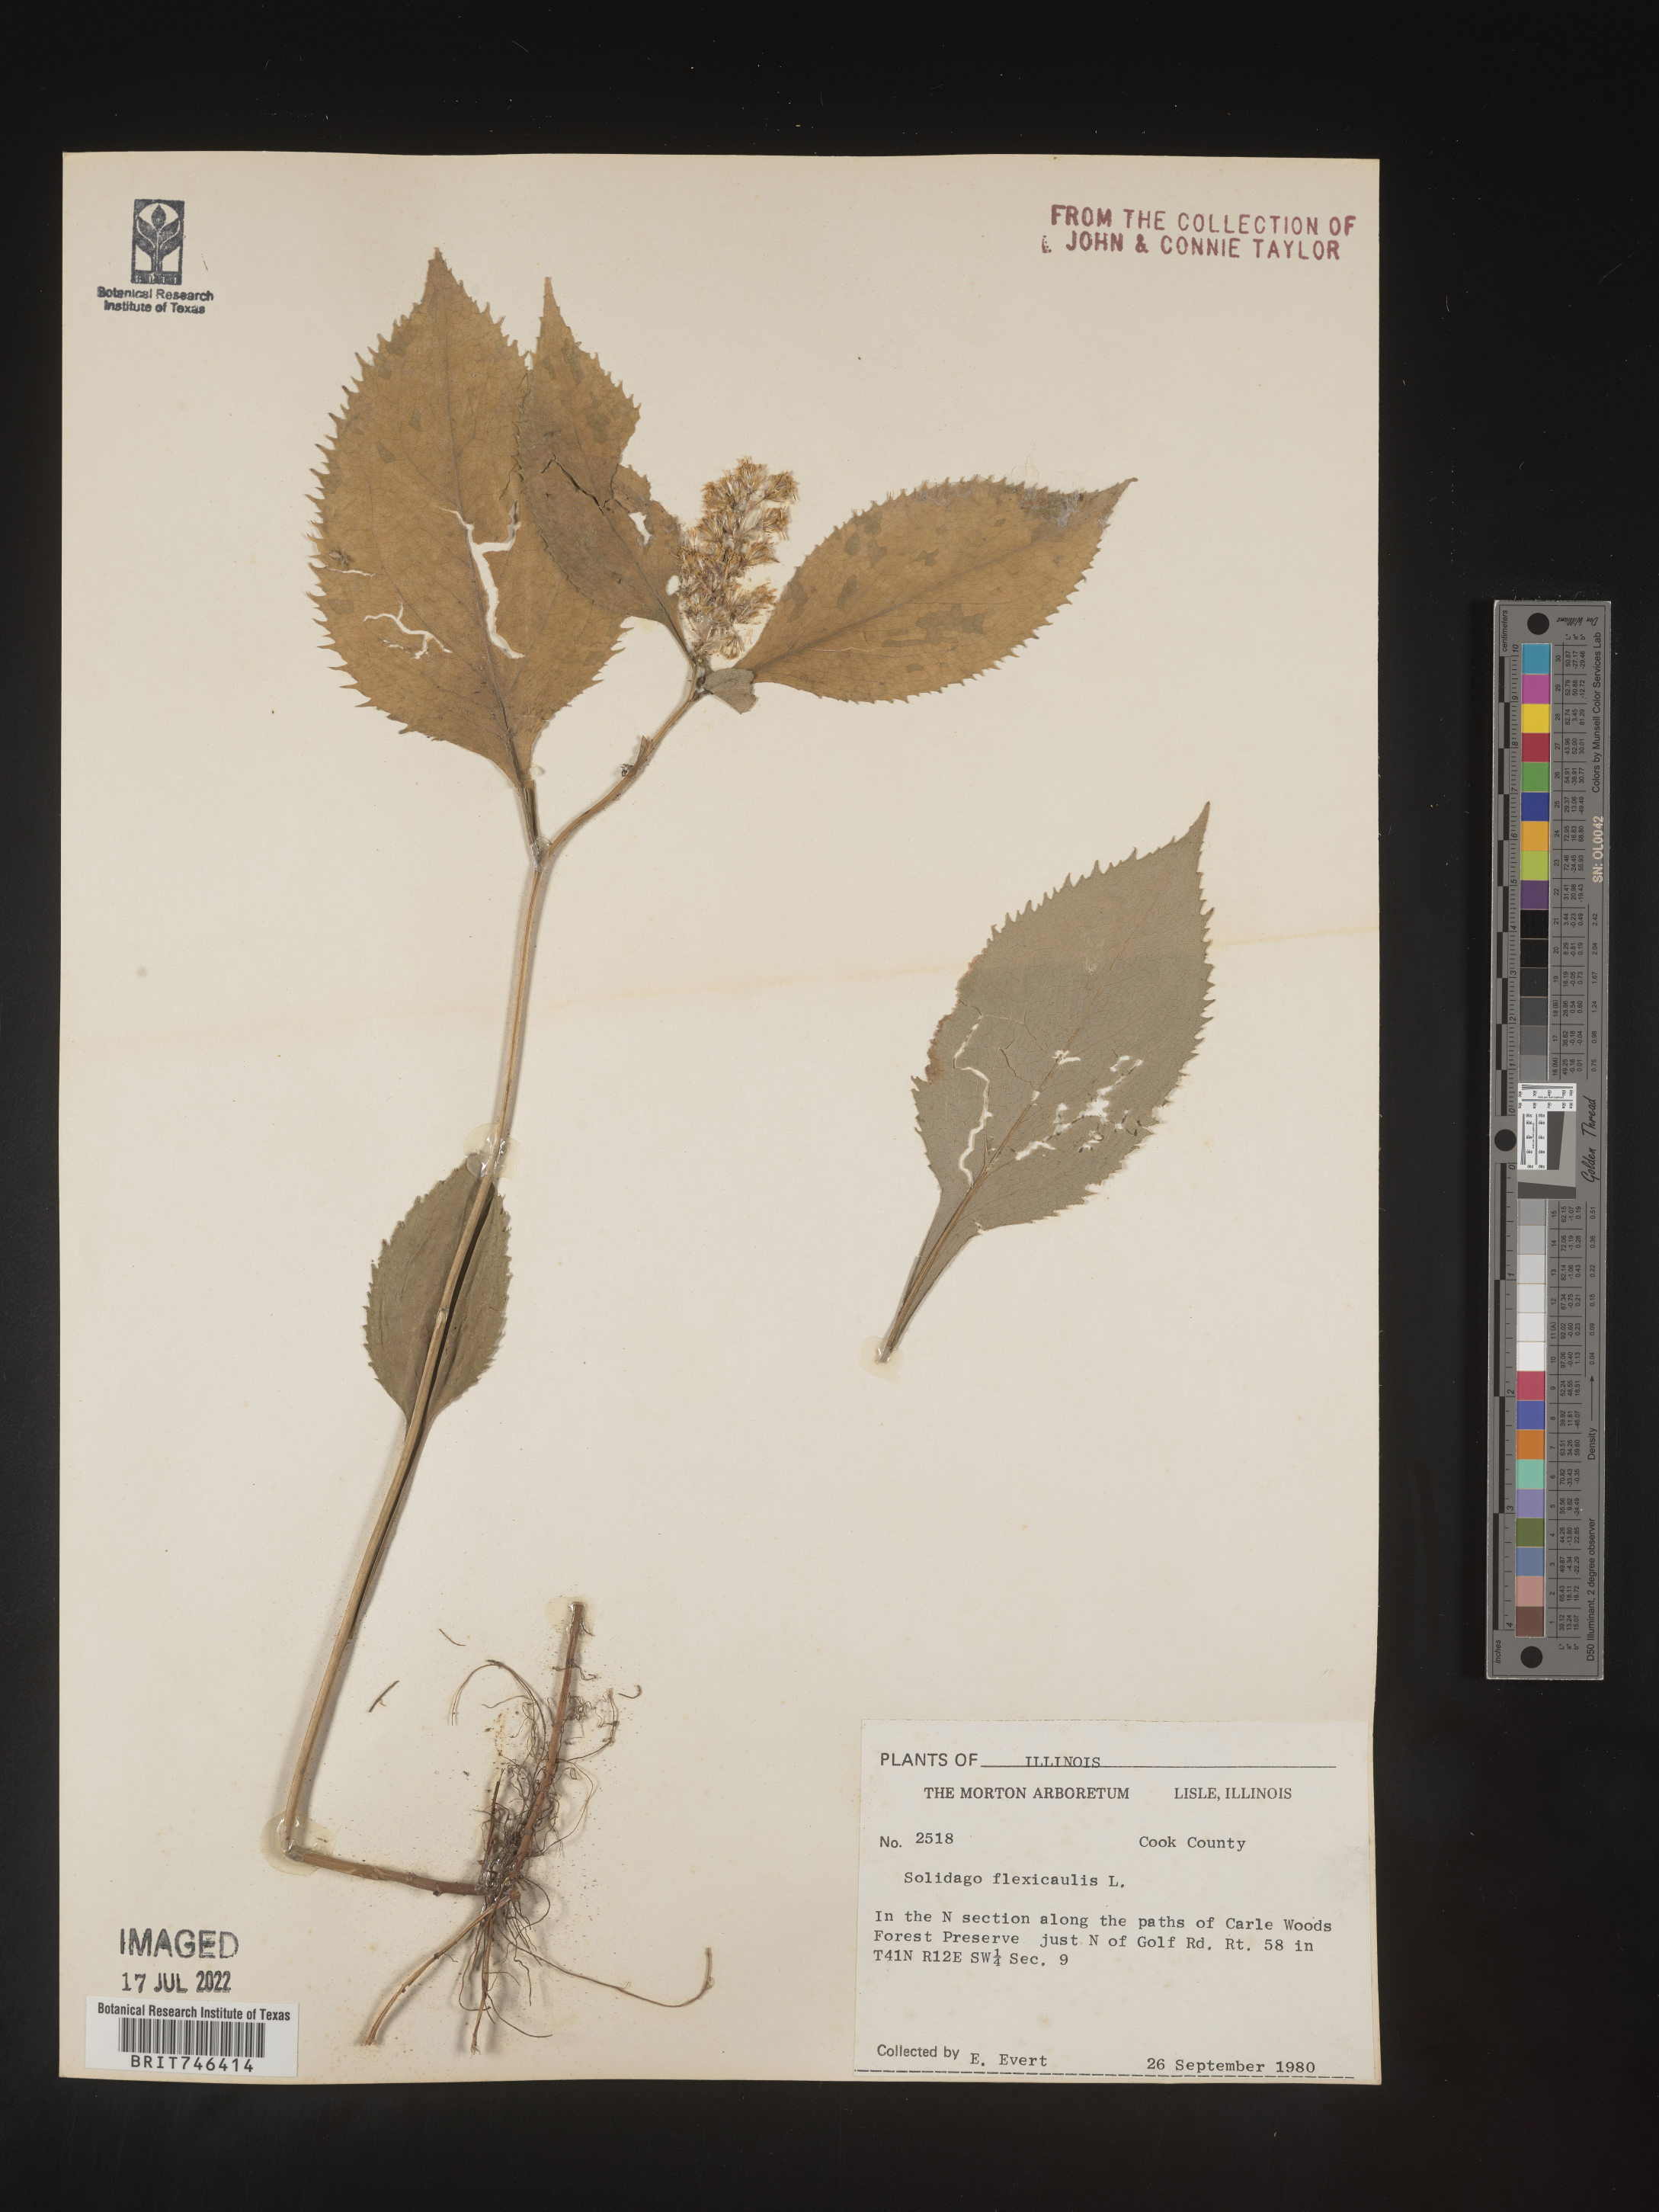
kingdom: Plantae
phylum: Tracheophyta
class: Magnoliopsida
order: Asterales
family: Asteraceae
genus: Solidago
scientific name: Solidago flexicaulis
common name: Zig-zag goldenrod
